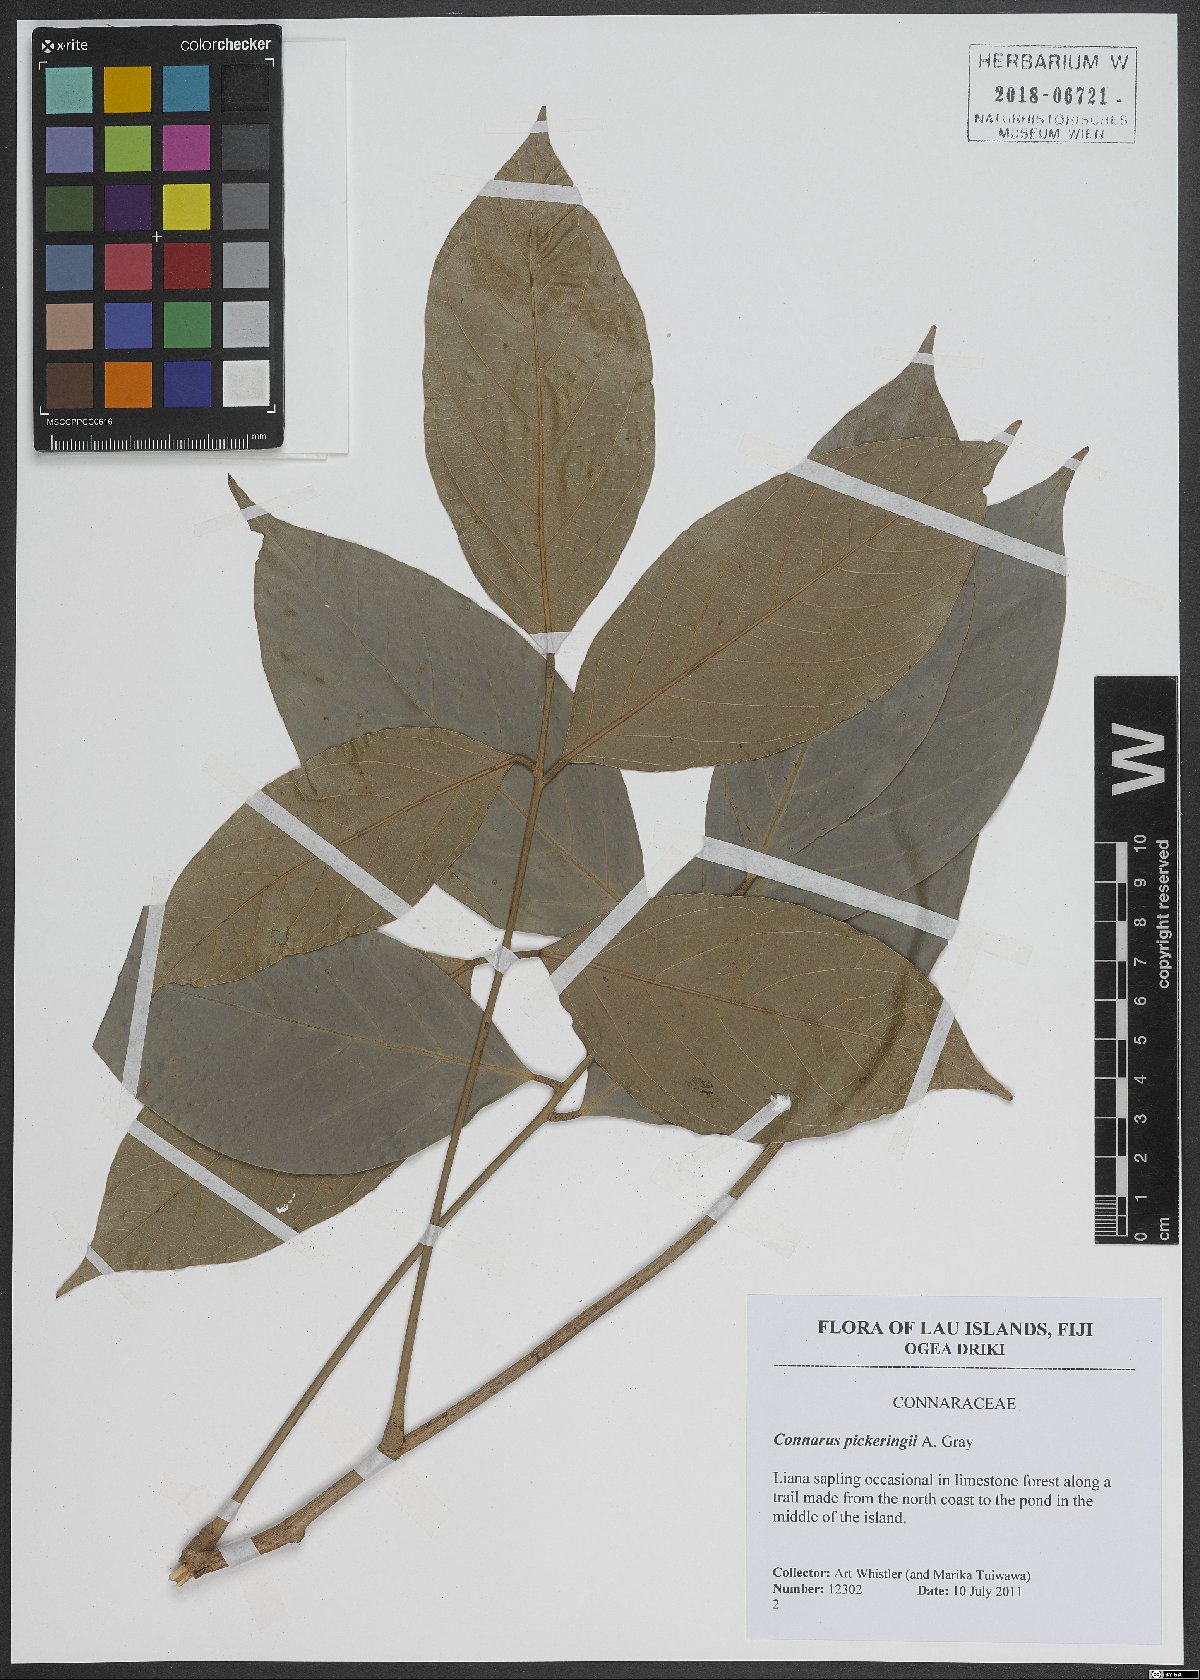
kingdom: Plantae
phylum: Tracheophyta
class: Magnoliopsida
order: Oxalidales
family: Connaraceae
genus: Connarus
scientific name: Connarus pickeringii
